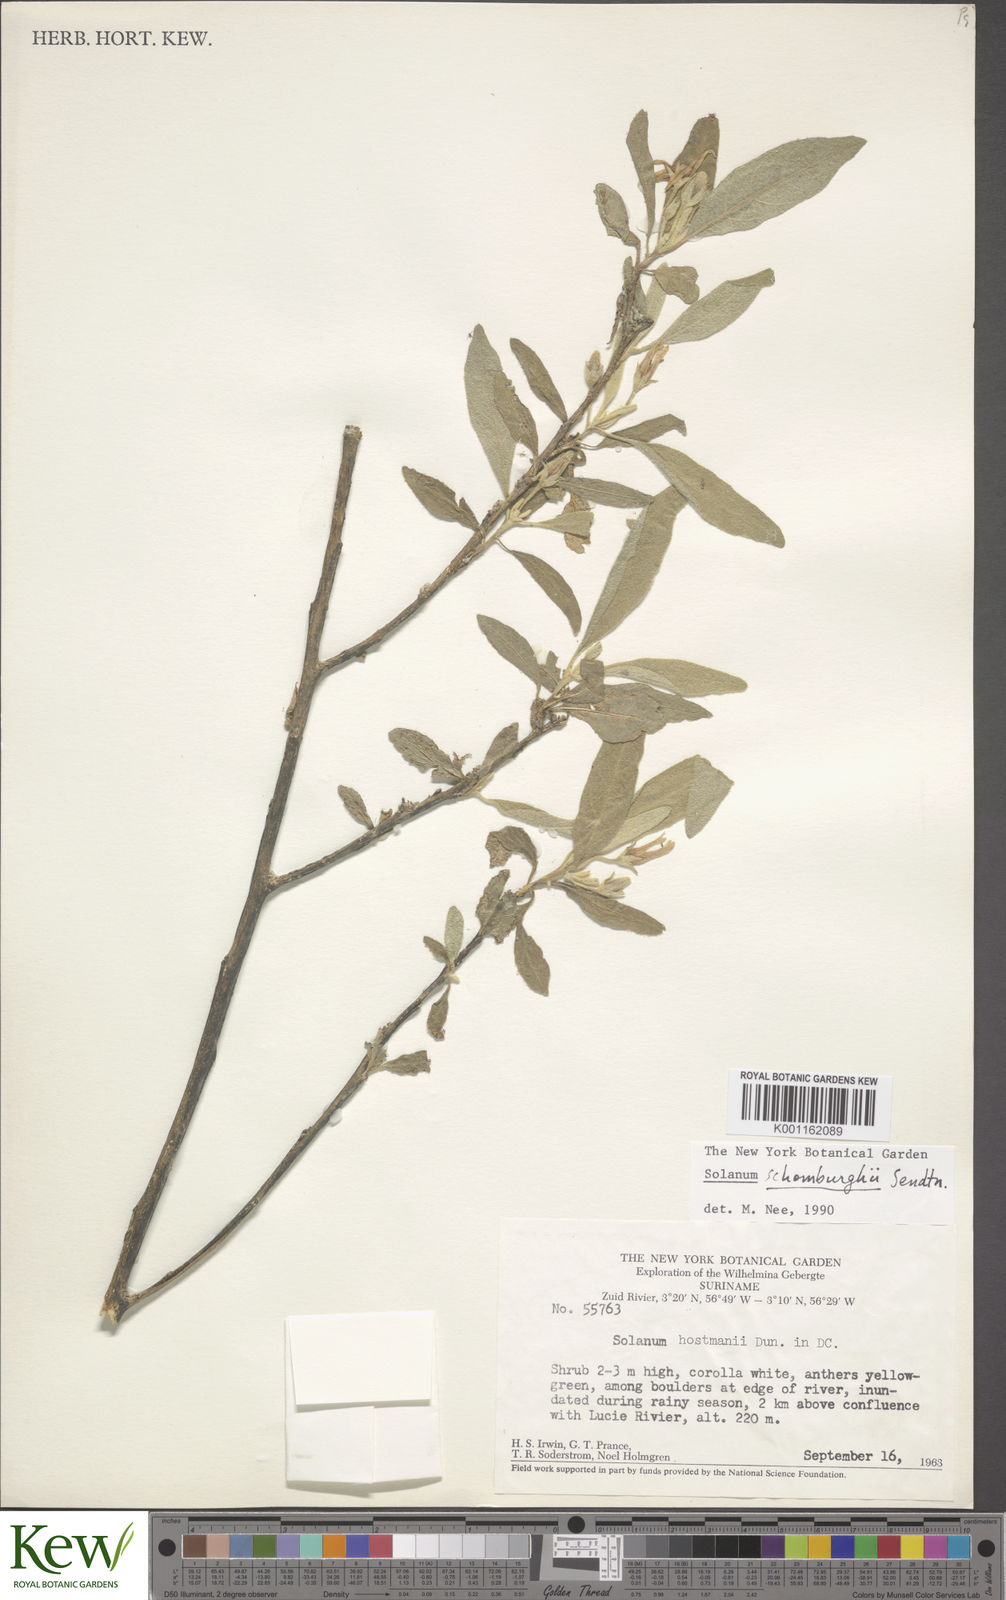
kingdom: Plantae
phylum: Tracheophyta
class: Magnoliopsida
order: Solanales
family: Solanaceae
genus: Solanum
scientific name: Solanum
